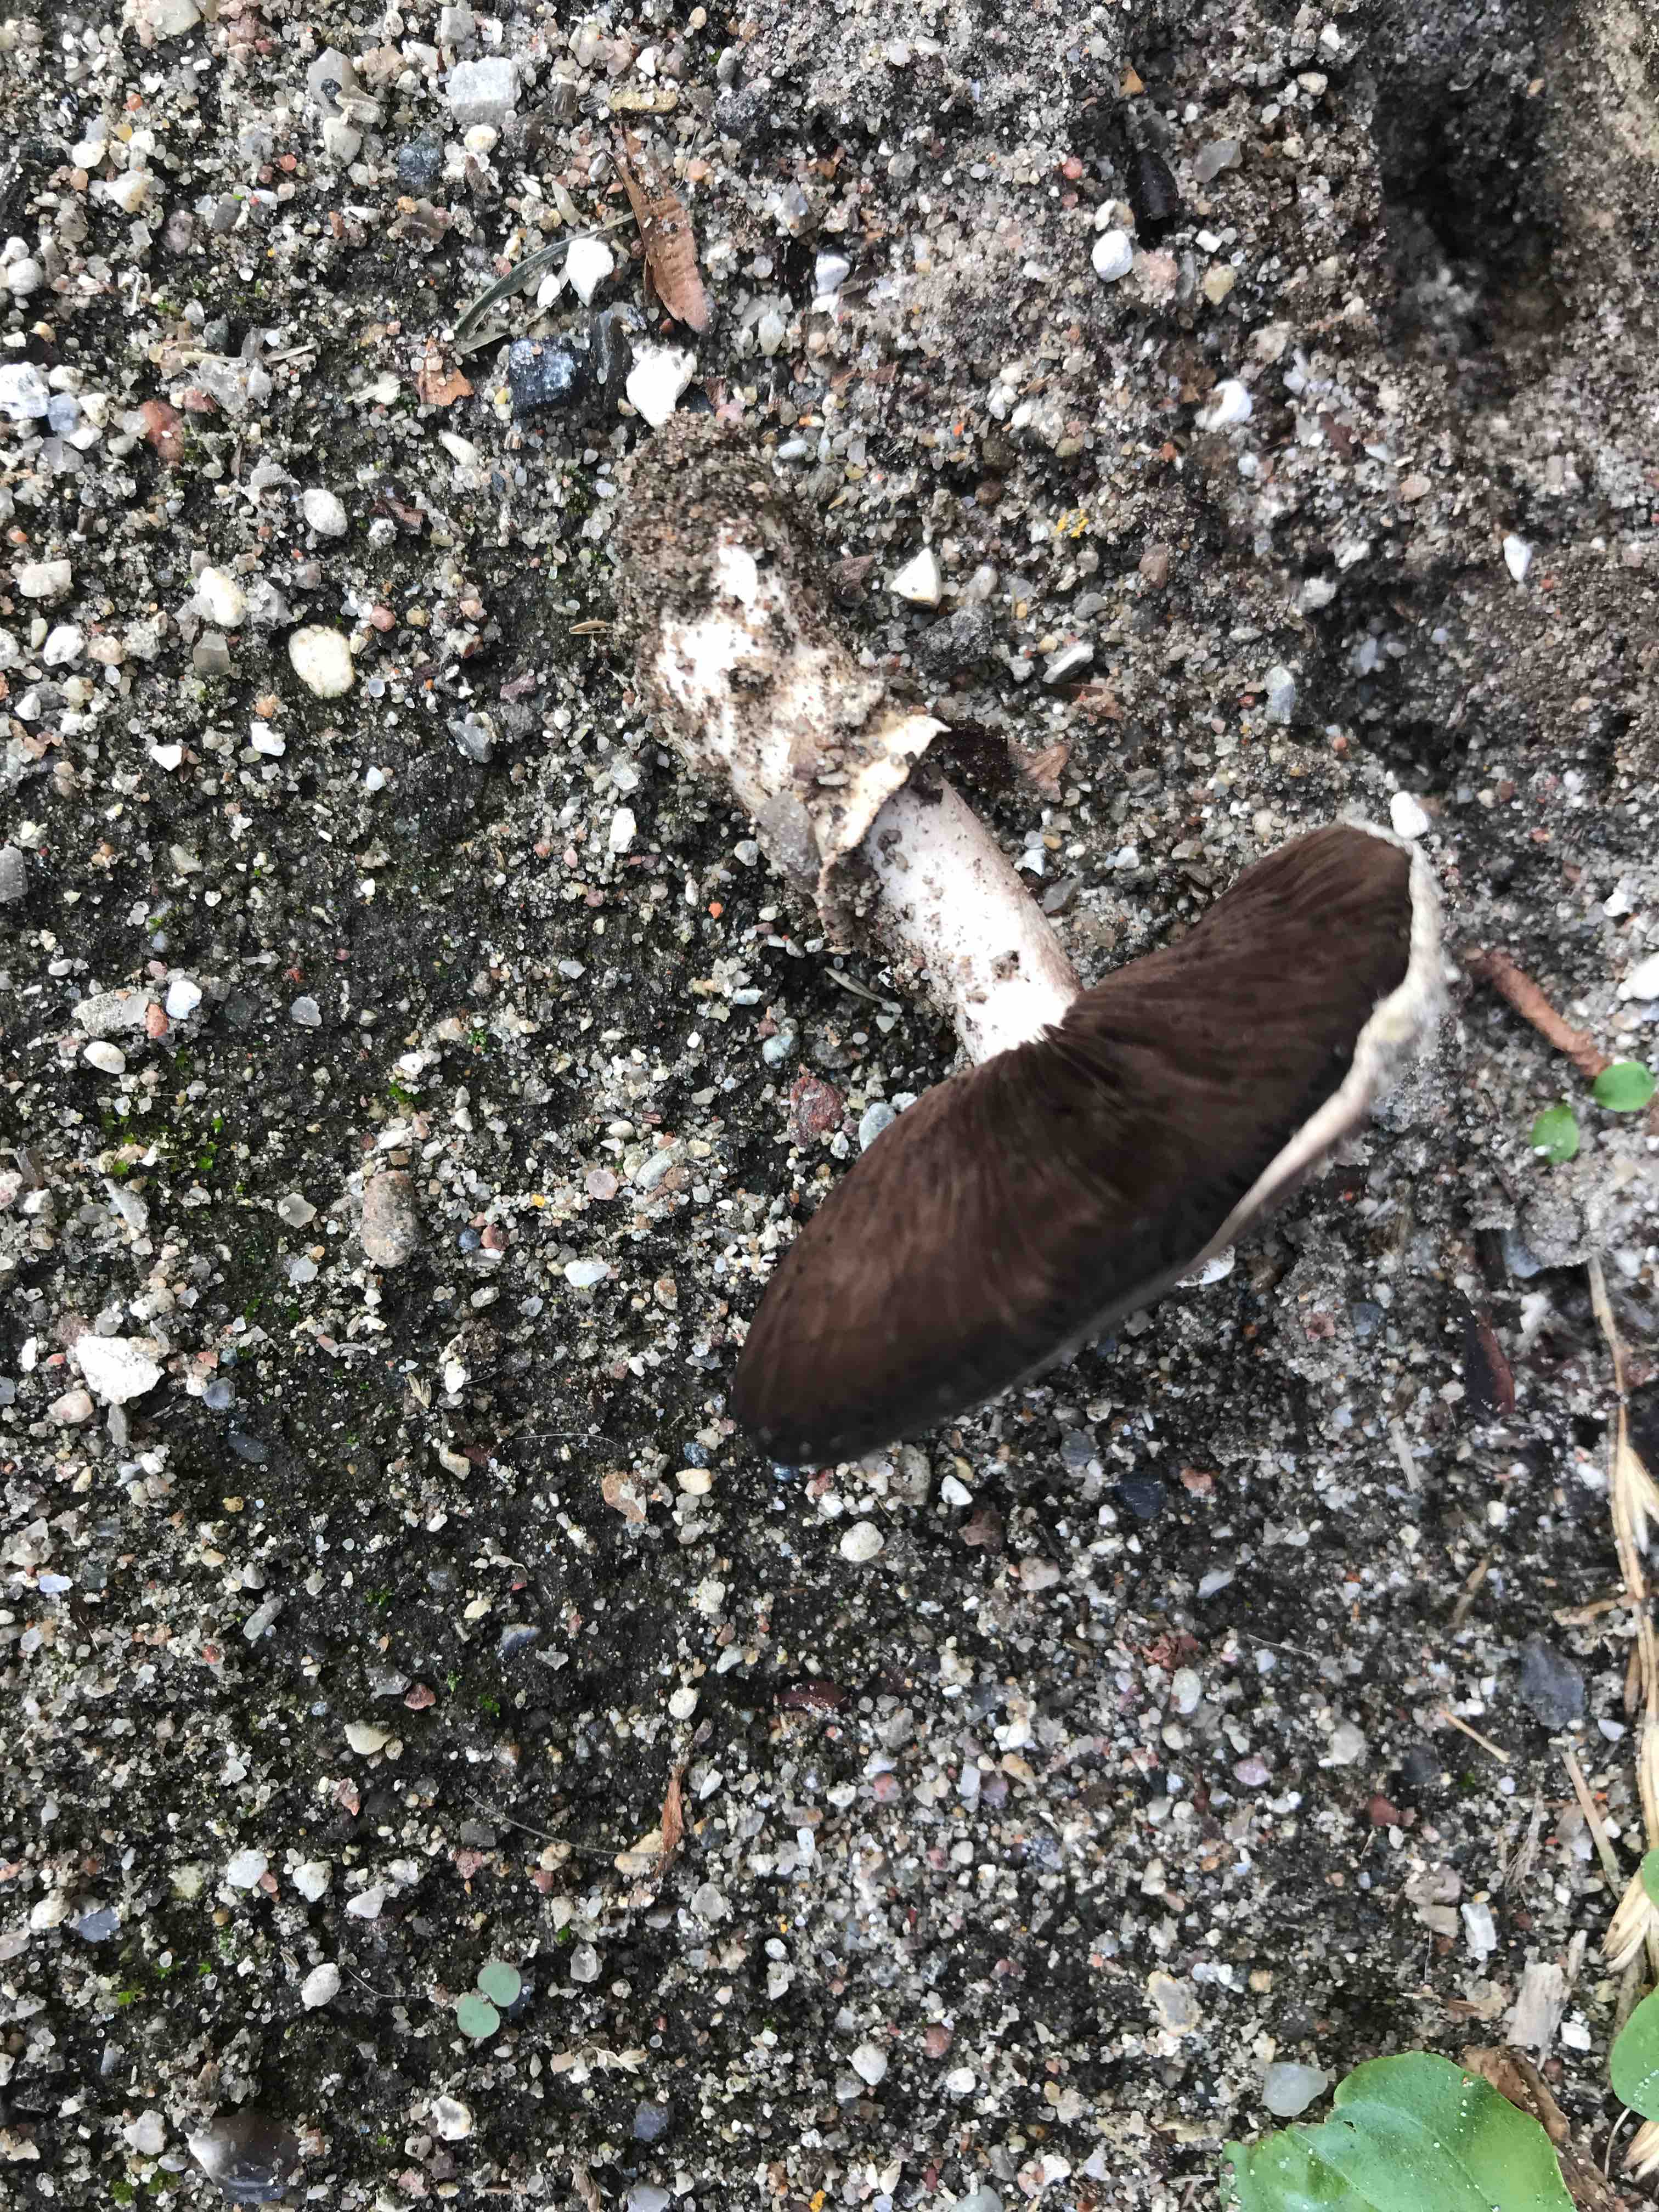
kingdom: Fungi
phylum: Basidiomycota
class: Agaricomycetes
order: Agaricales
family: Agaricaceae
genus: Agaricus
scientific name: Agaricus bitorquis
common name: vej-champignon
